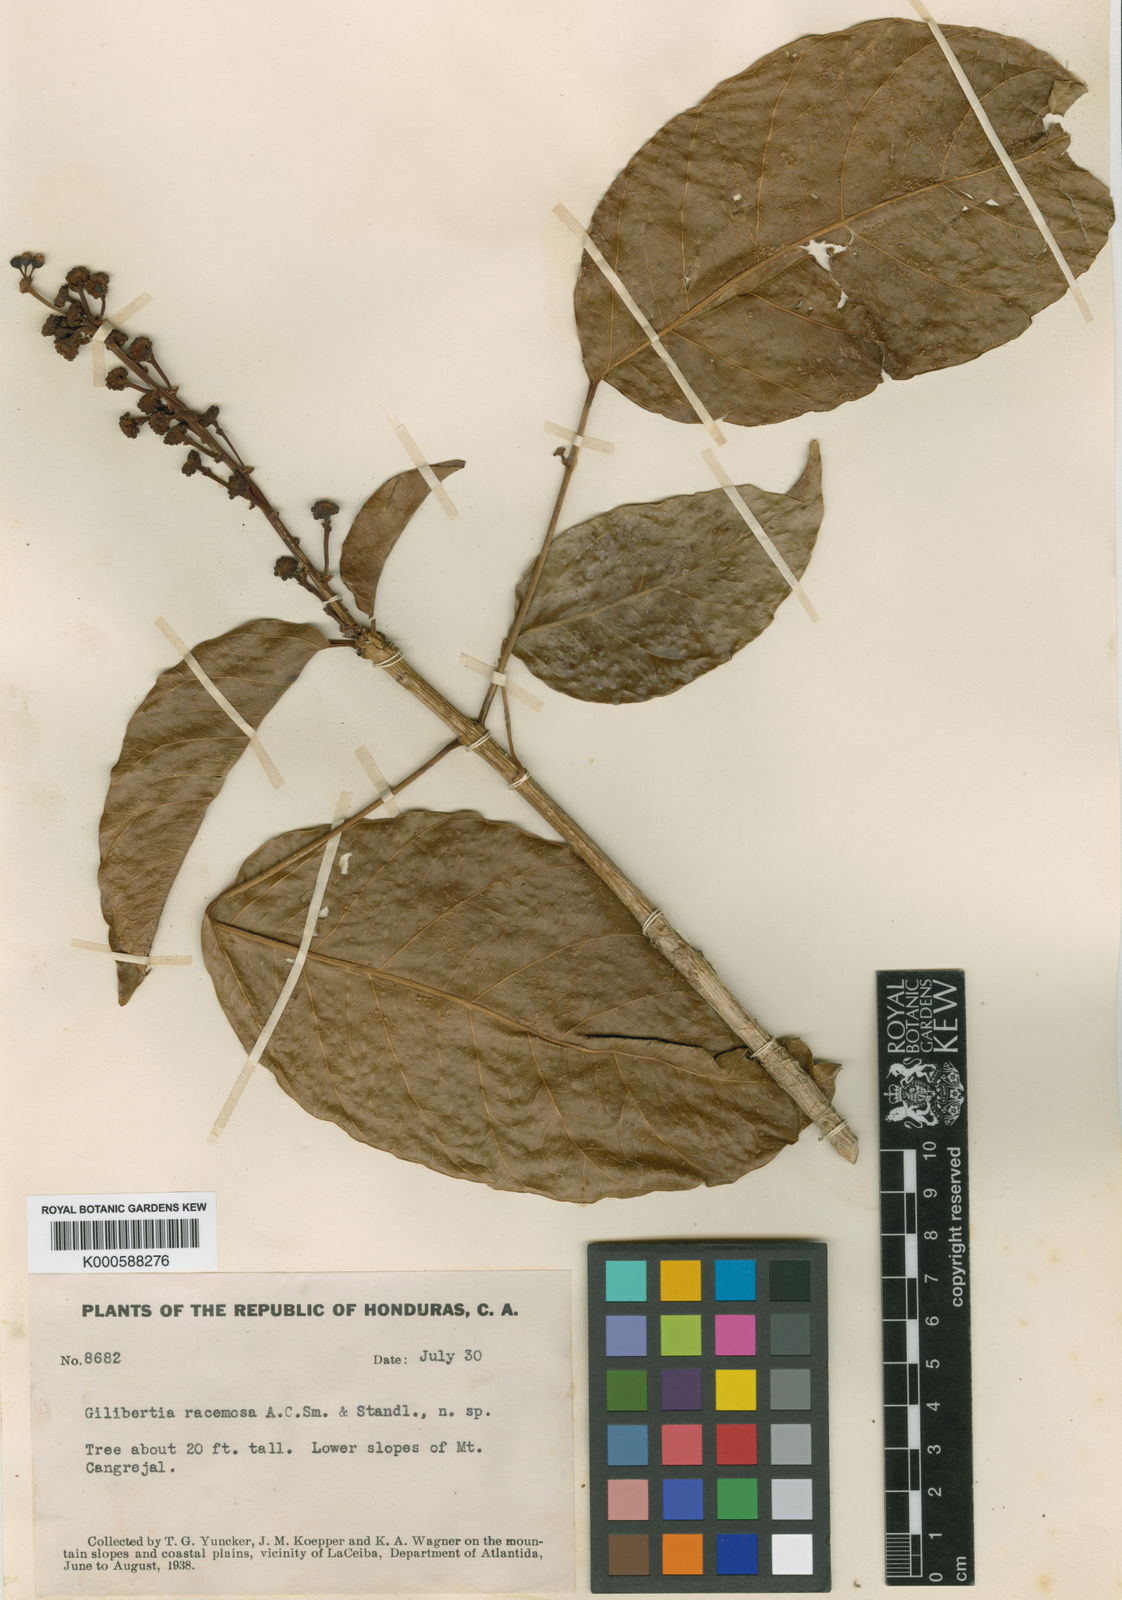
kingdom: Plantae
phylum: Tracheophyta
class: Magnoliopsida
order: Apiales
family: Araliaceae
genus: Dendropanax
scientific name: Dendropanax
